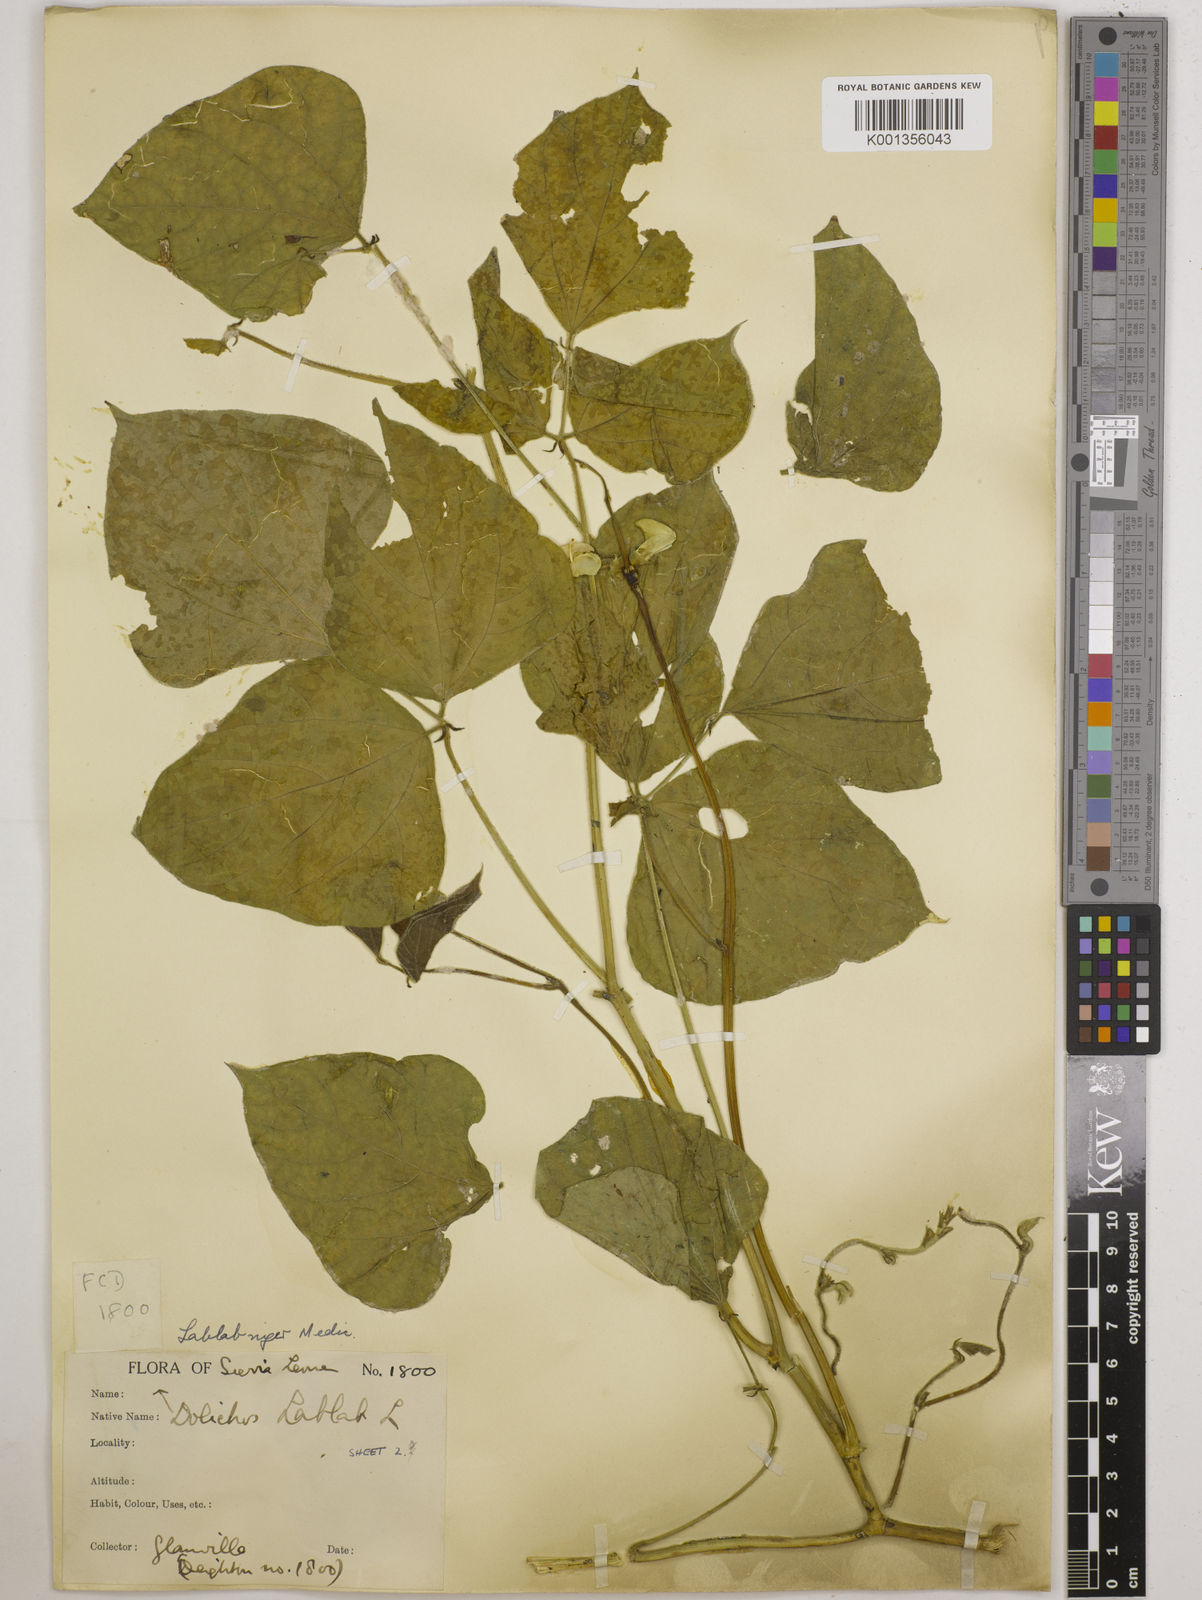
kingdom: Plantae
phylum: Tracheophyta
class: Magnoliopsida
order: Fabales
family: Fabaceae
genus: Lablab
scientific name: Lablab purpureus
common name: Lablab-bean
